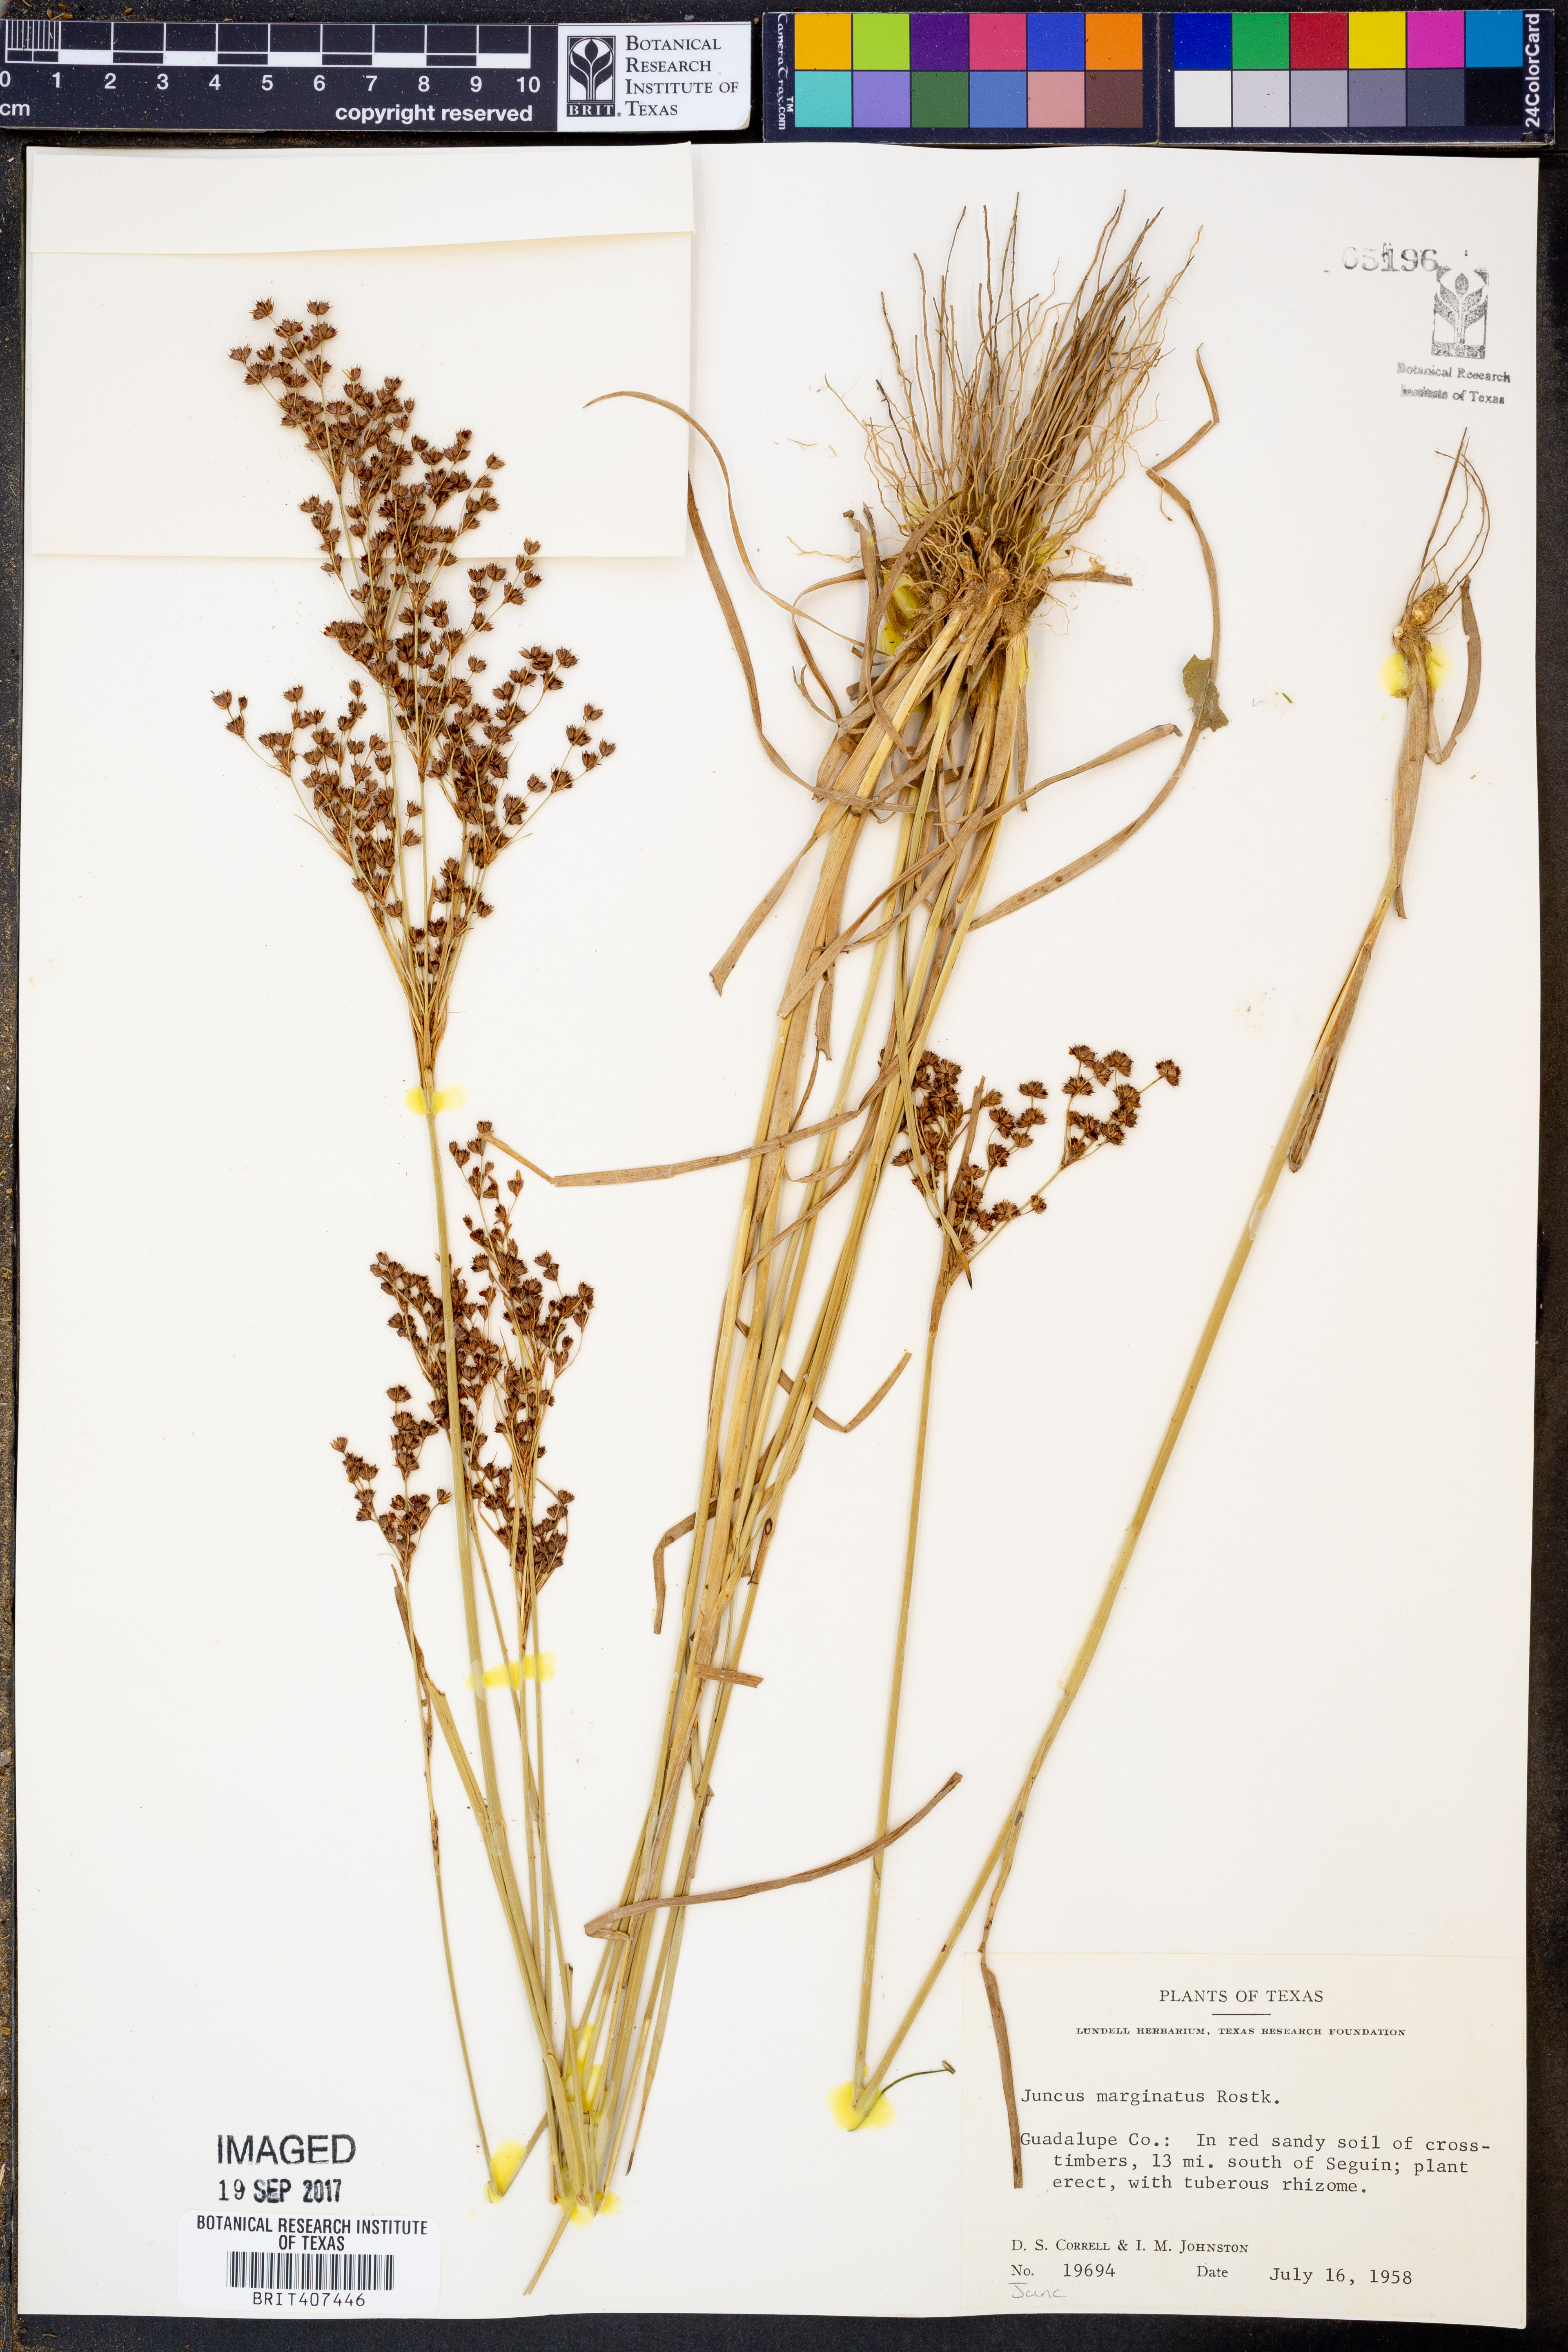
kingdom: Plantae
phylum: Tracheophyta
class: Liliopsida
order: Poales
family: Juncaceae
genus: Juncus
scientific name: Juncus marginatus
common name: Grass-leaf rush
